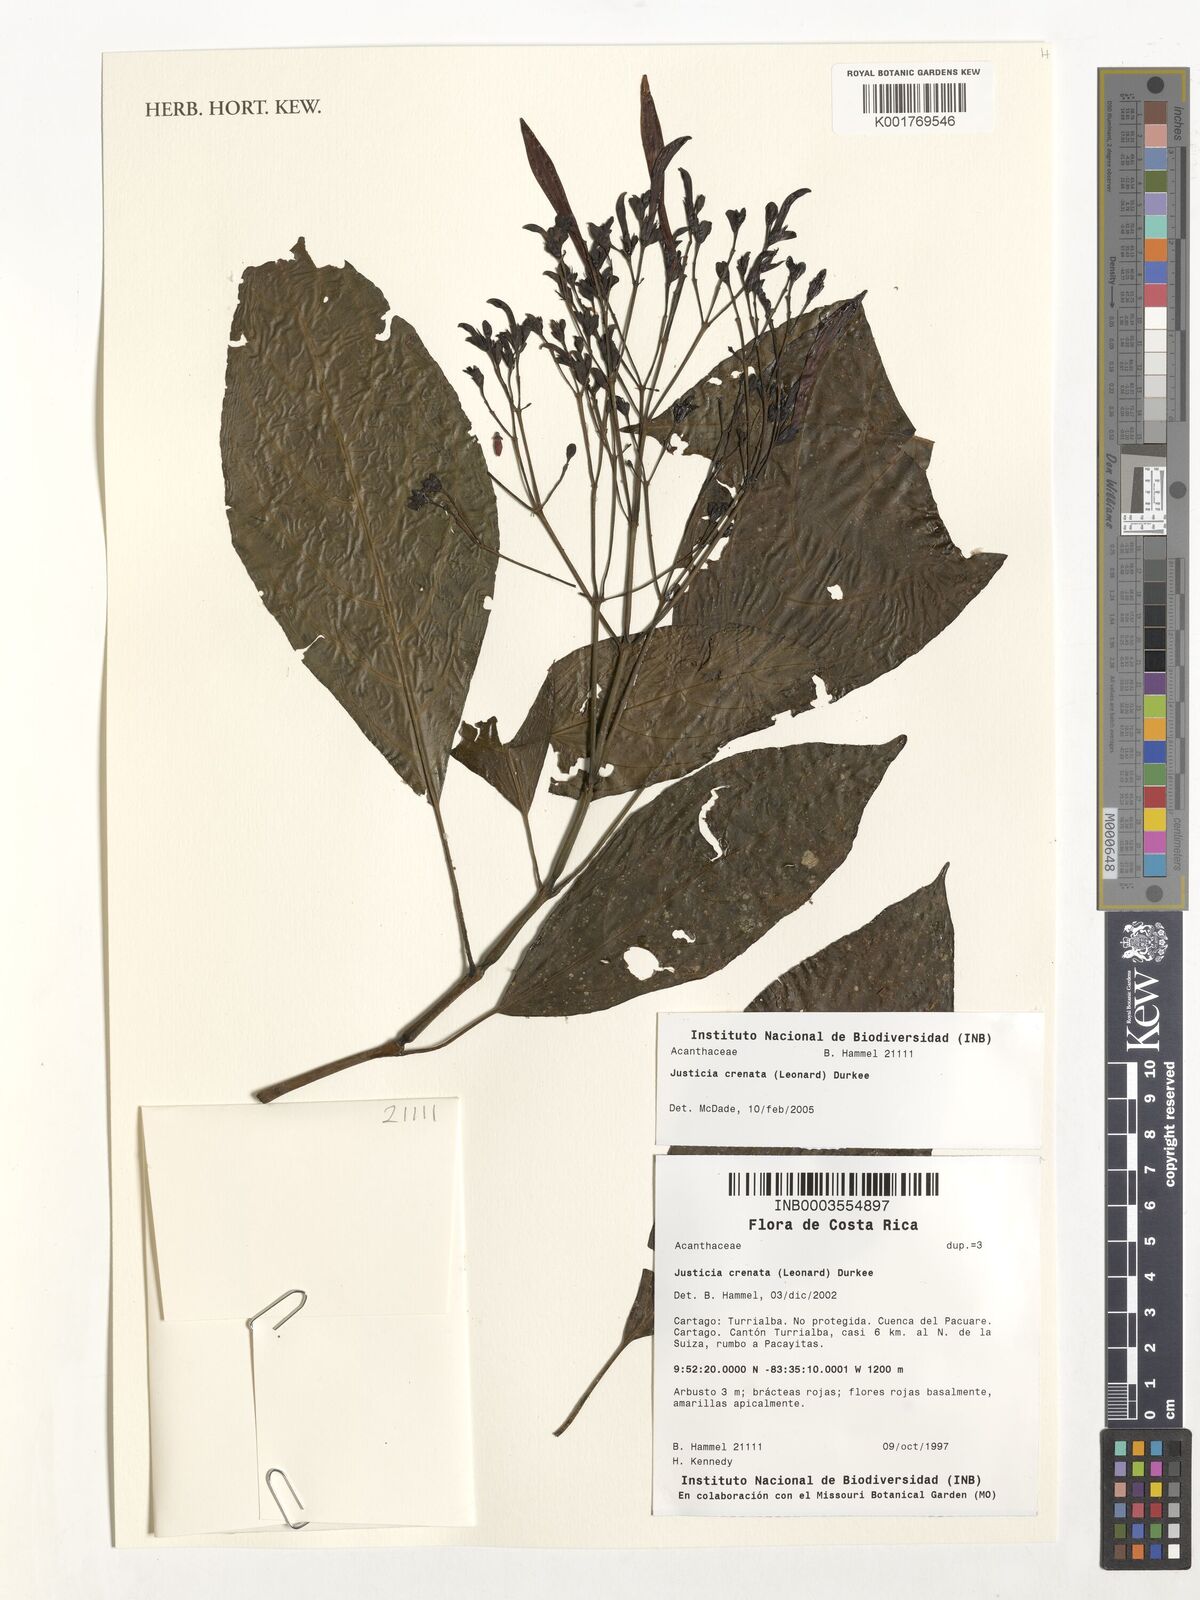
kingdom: Plantae
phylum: Tracheophyta
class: Magnoliopsida
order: Lamiales
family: Acanthaceae
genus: Justicia
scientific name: Justicia crenata
